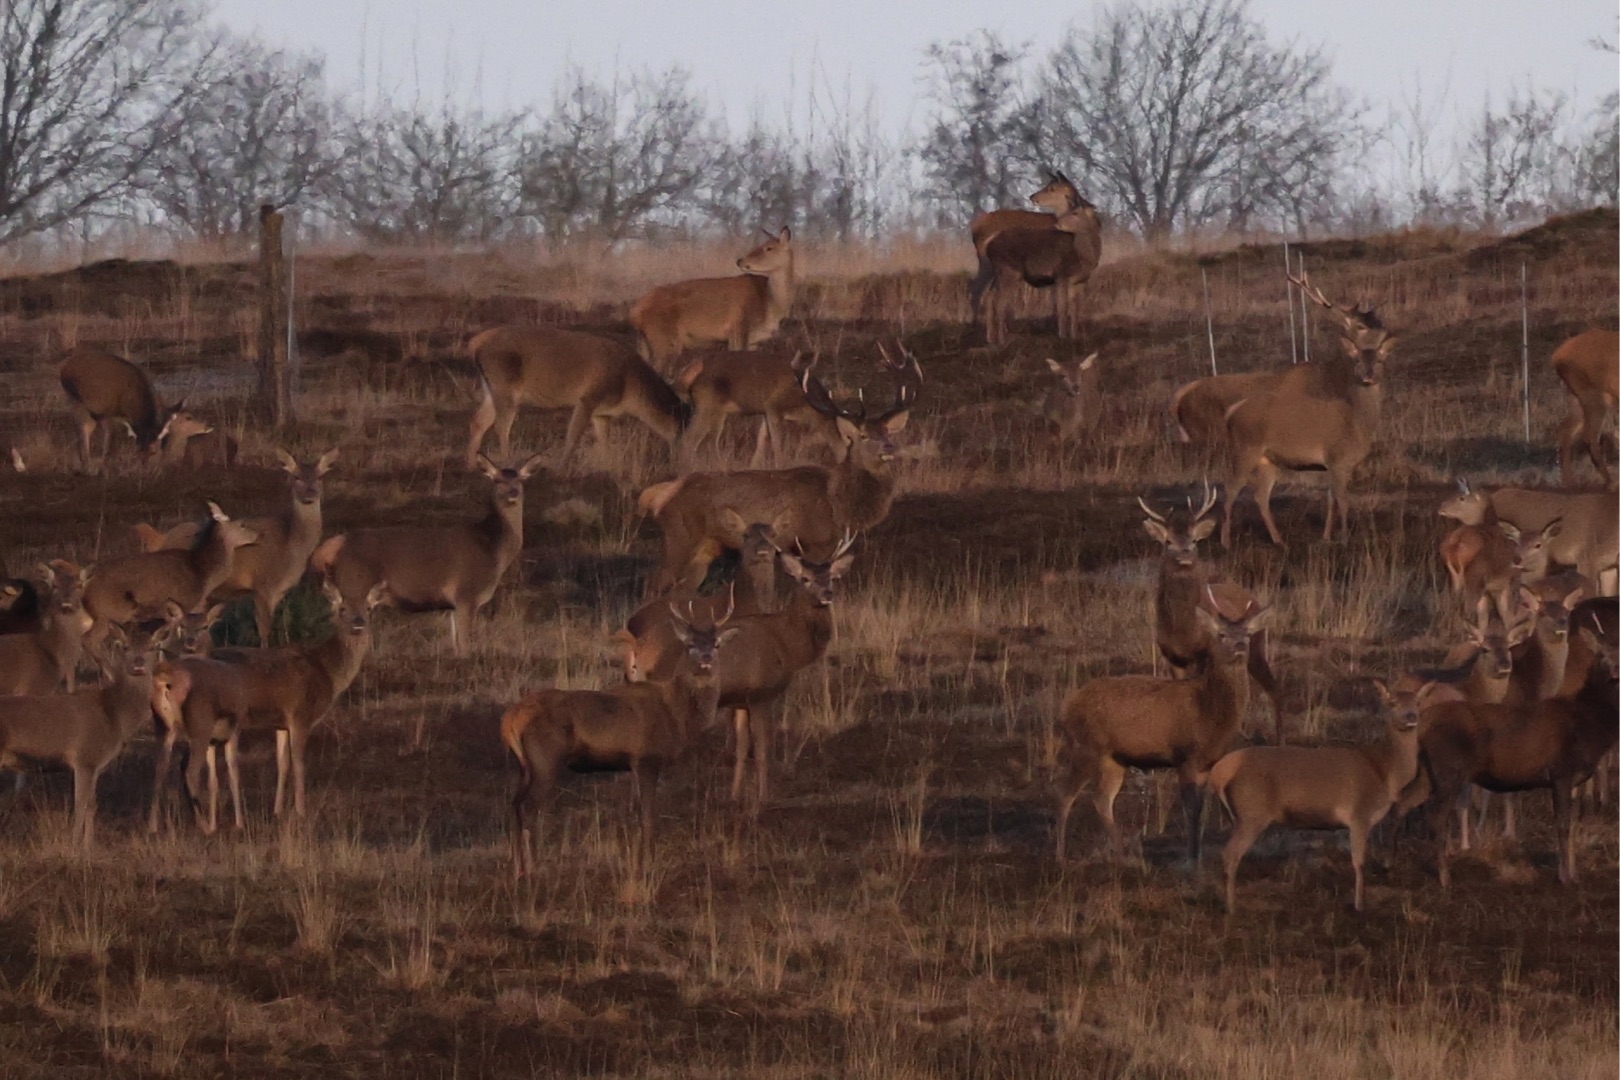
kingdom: Animalia
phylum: Chordata
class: Mammalia
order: Artiodactyla
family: Cervidae
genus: Cervus
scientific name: Cervus elaphus
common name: Krondyr
